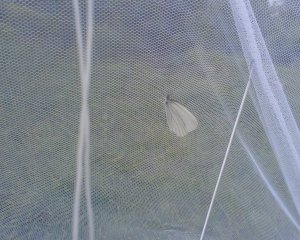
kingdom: Animalia
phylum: Arthropoda
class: Insecta
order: Lepidoptera
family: Pieridae
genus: Pieris
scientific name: Pieris oleracea
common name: Mustard White
